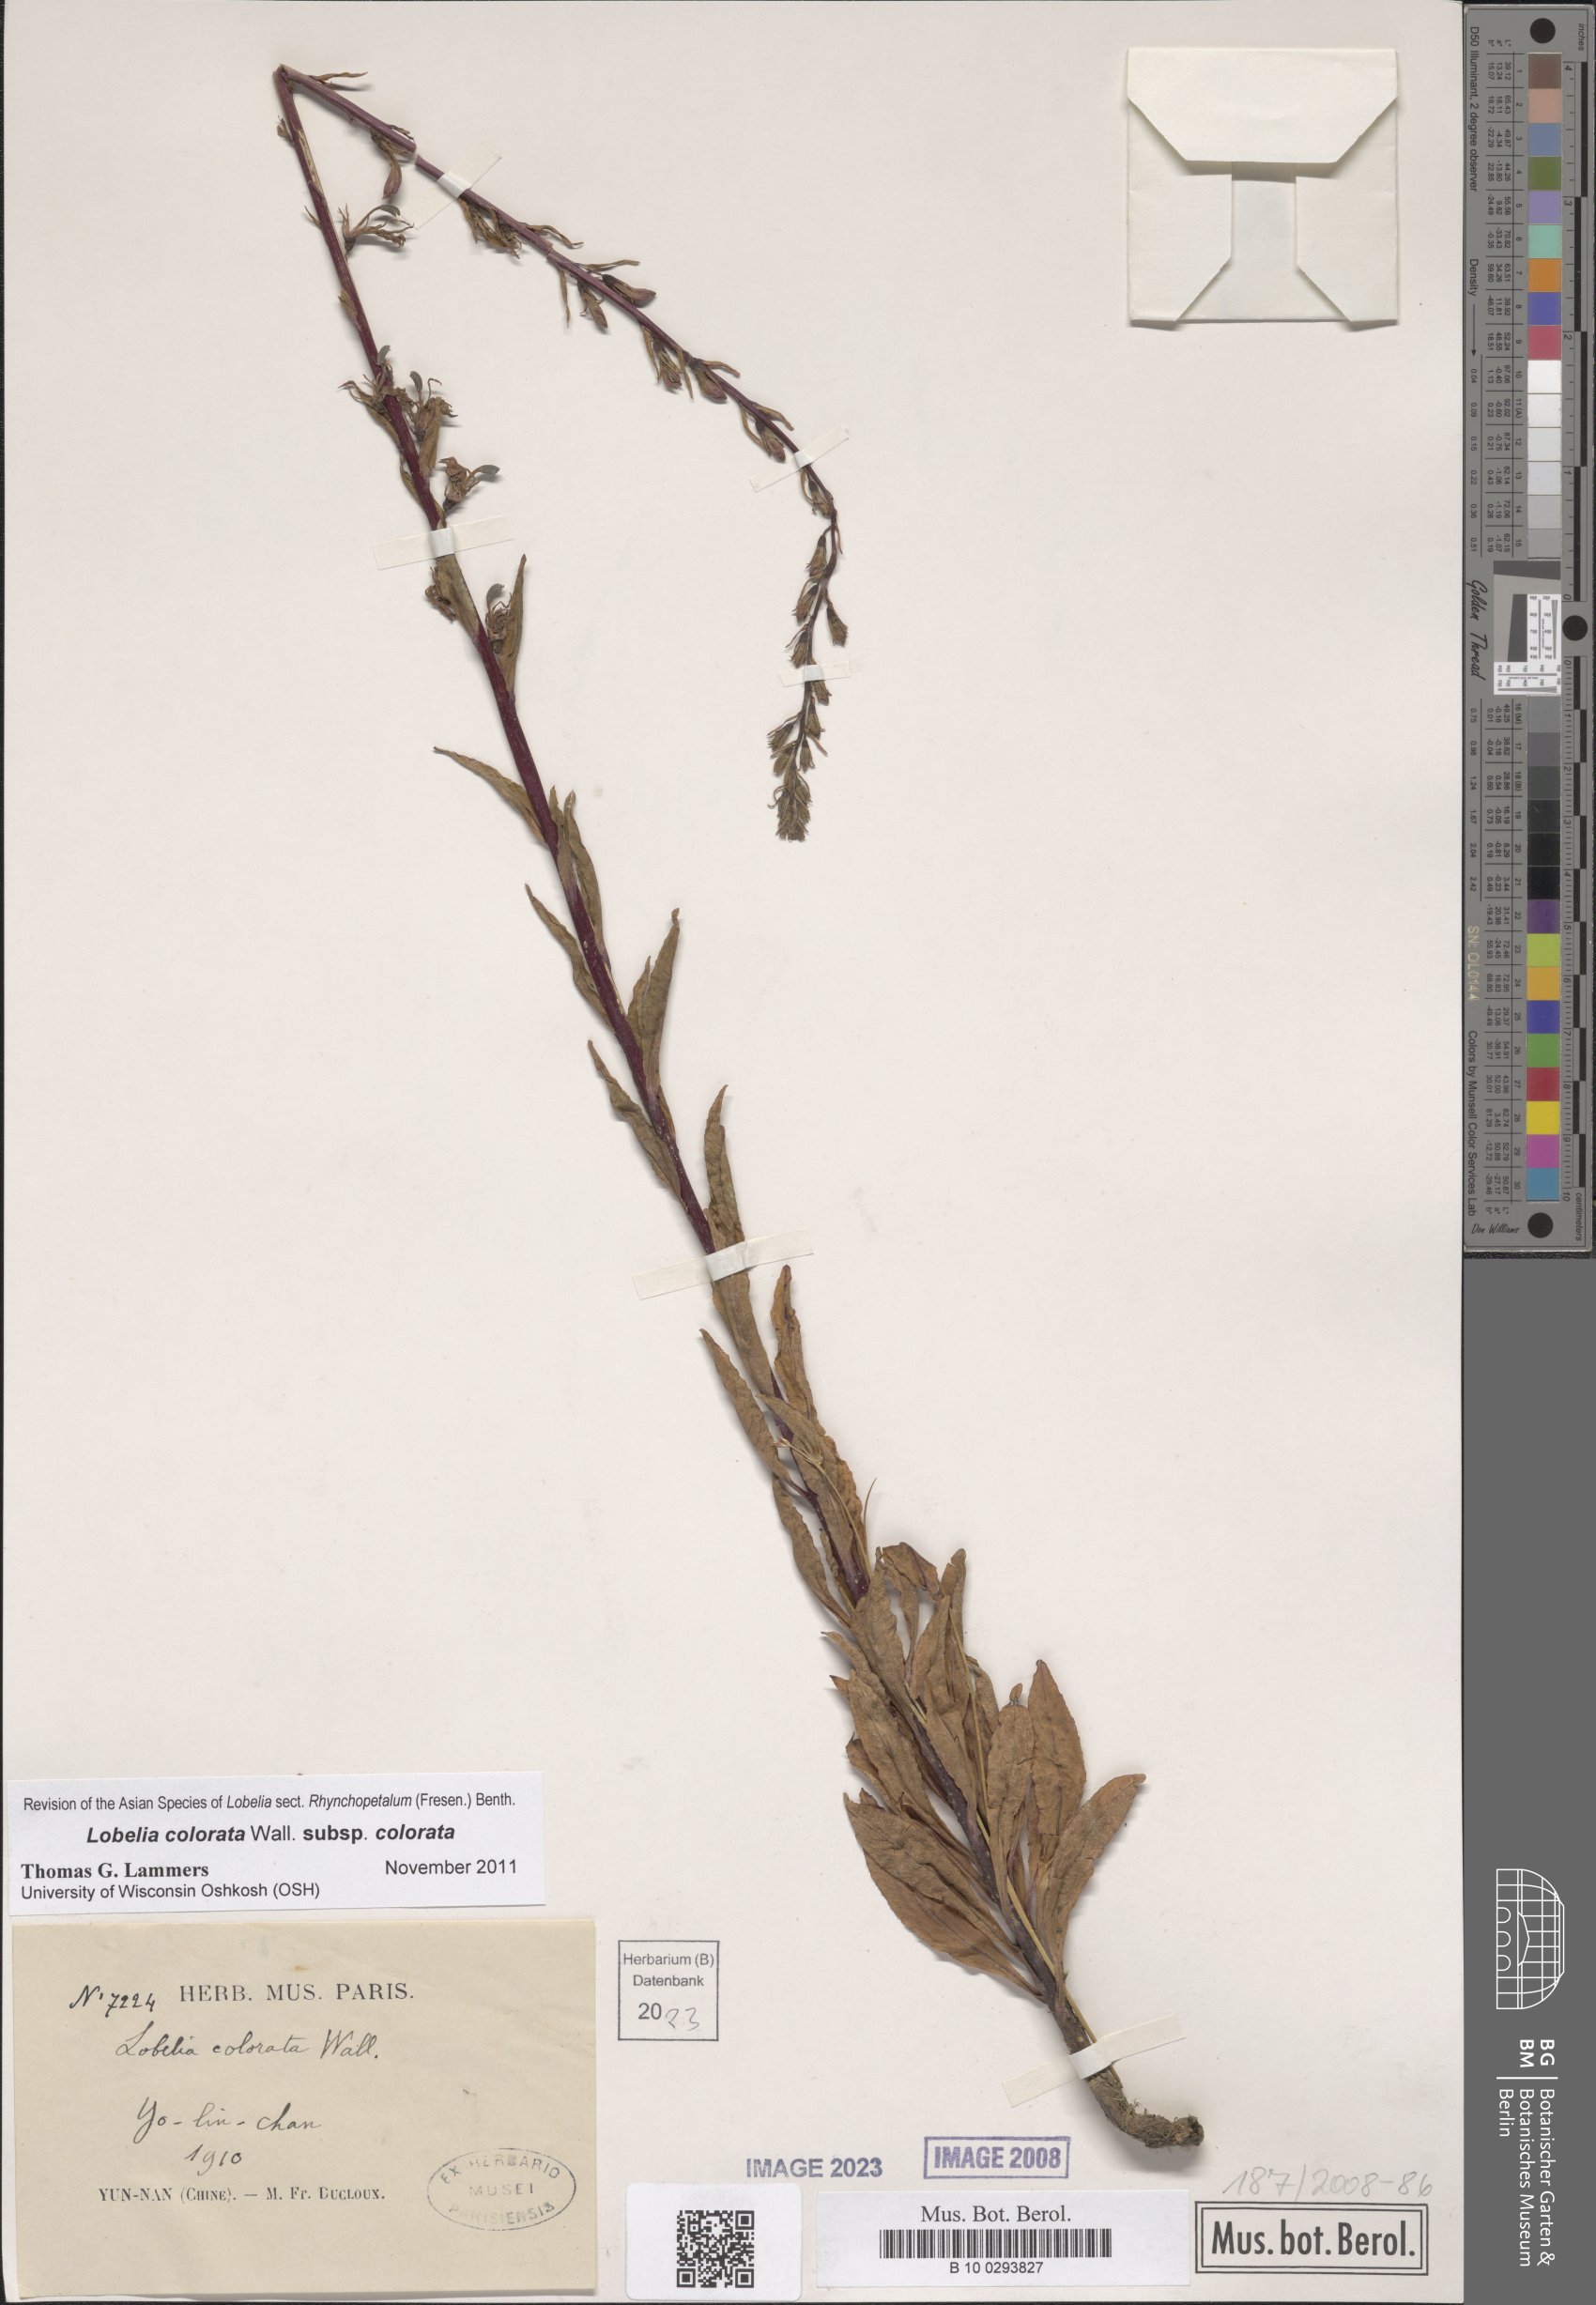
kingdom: Plantae
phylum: Tracheophyta
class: Magnoliopsida
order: Asterales
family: Campanulaceae
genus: Lobelia
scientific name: Lobelia
